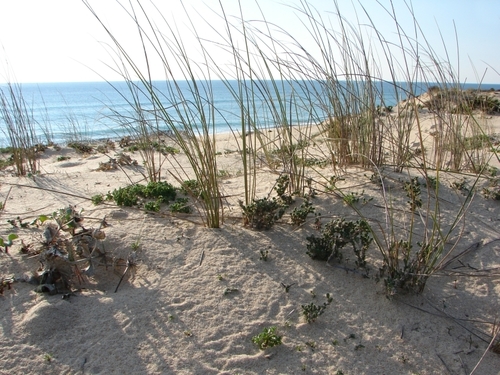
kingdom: Plantae
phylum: Tracheophyta
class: Liliopsida
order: Poales
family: Poaceae
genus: Calamagrostis
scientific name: Calamagrostis arenaria
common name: European beachgrass
